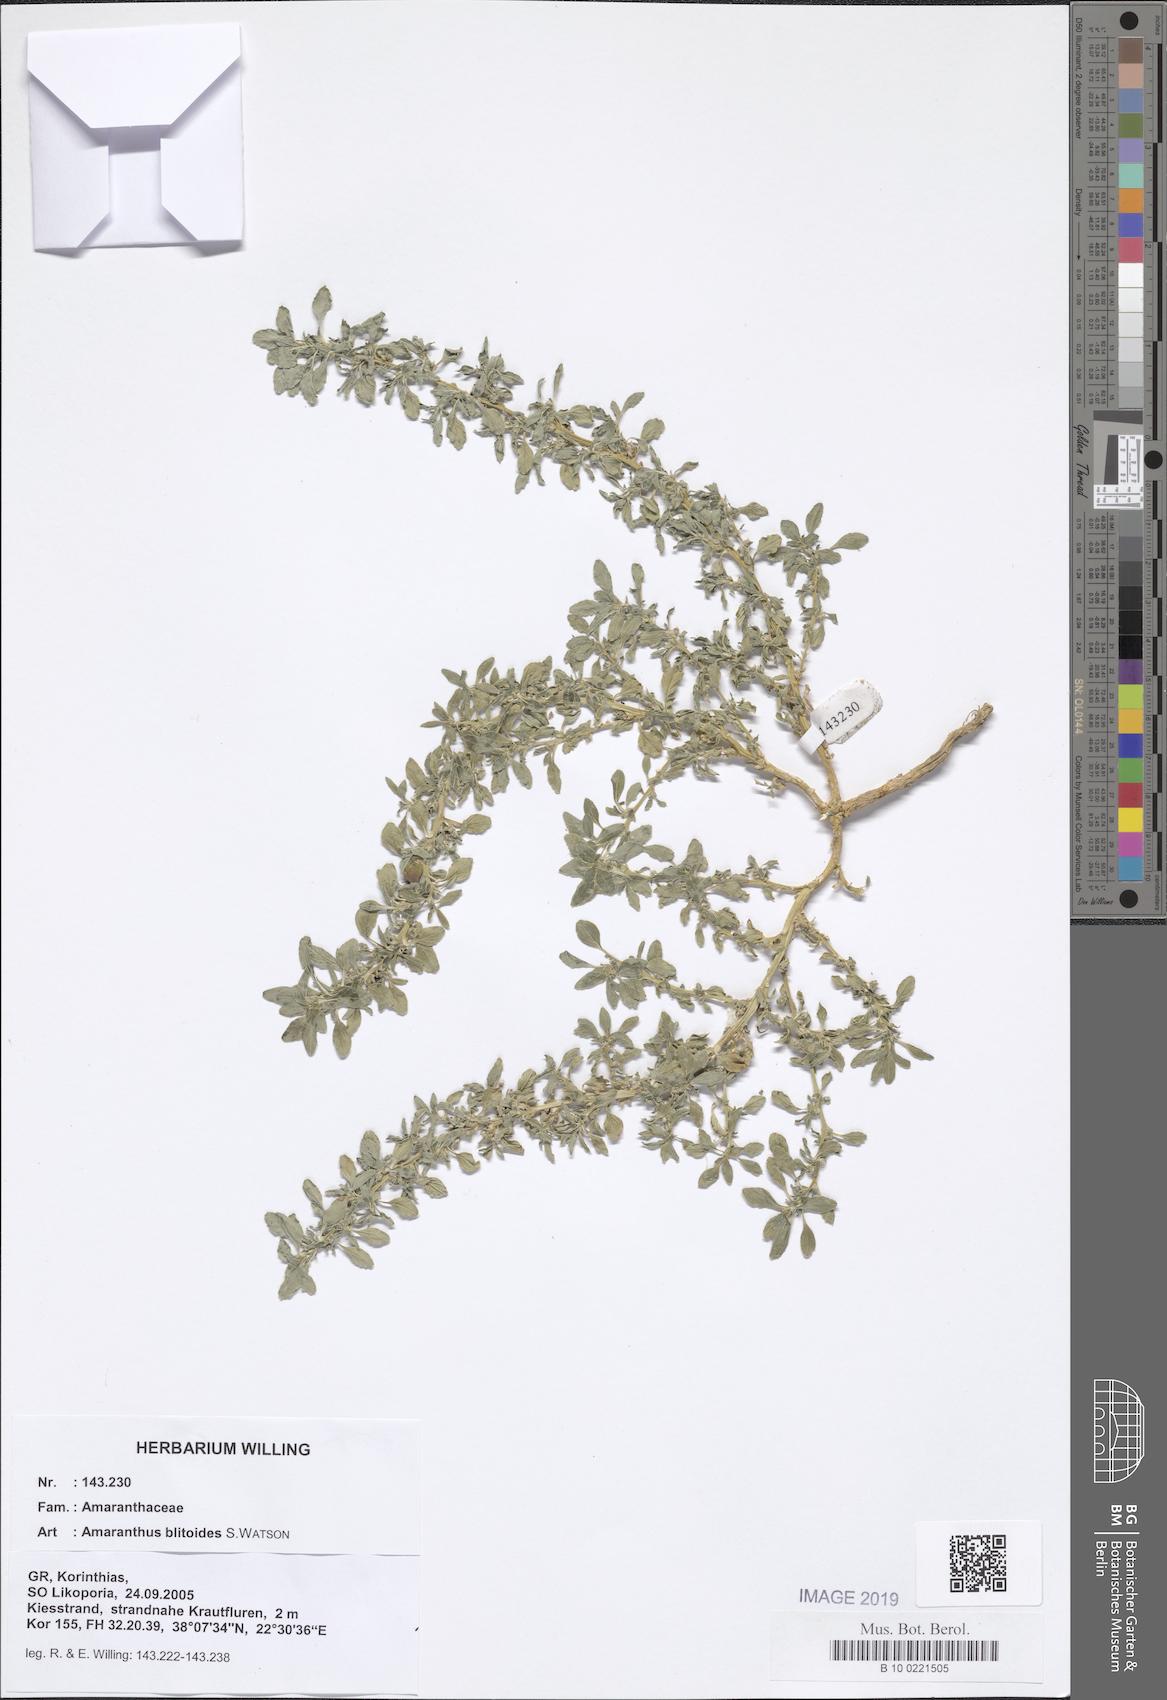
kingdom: Plantae
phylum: Tracheophyta
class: Magnoliopsida
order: Caryophyllales
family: Amaranthaceae
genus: Amaranthus
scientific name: Amaranthus blitoides
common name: Prostrate pigweed
